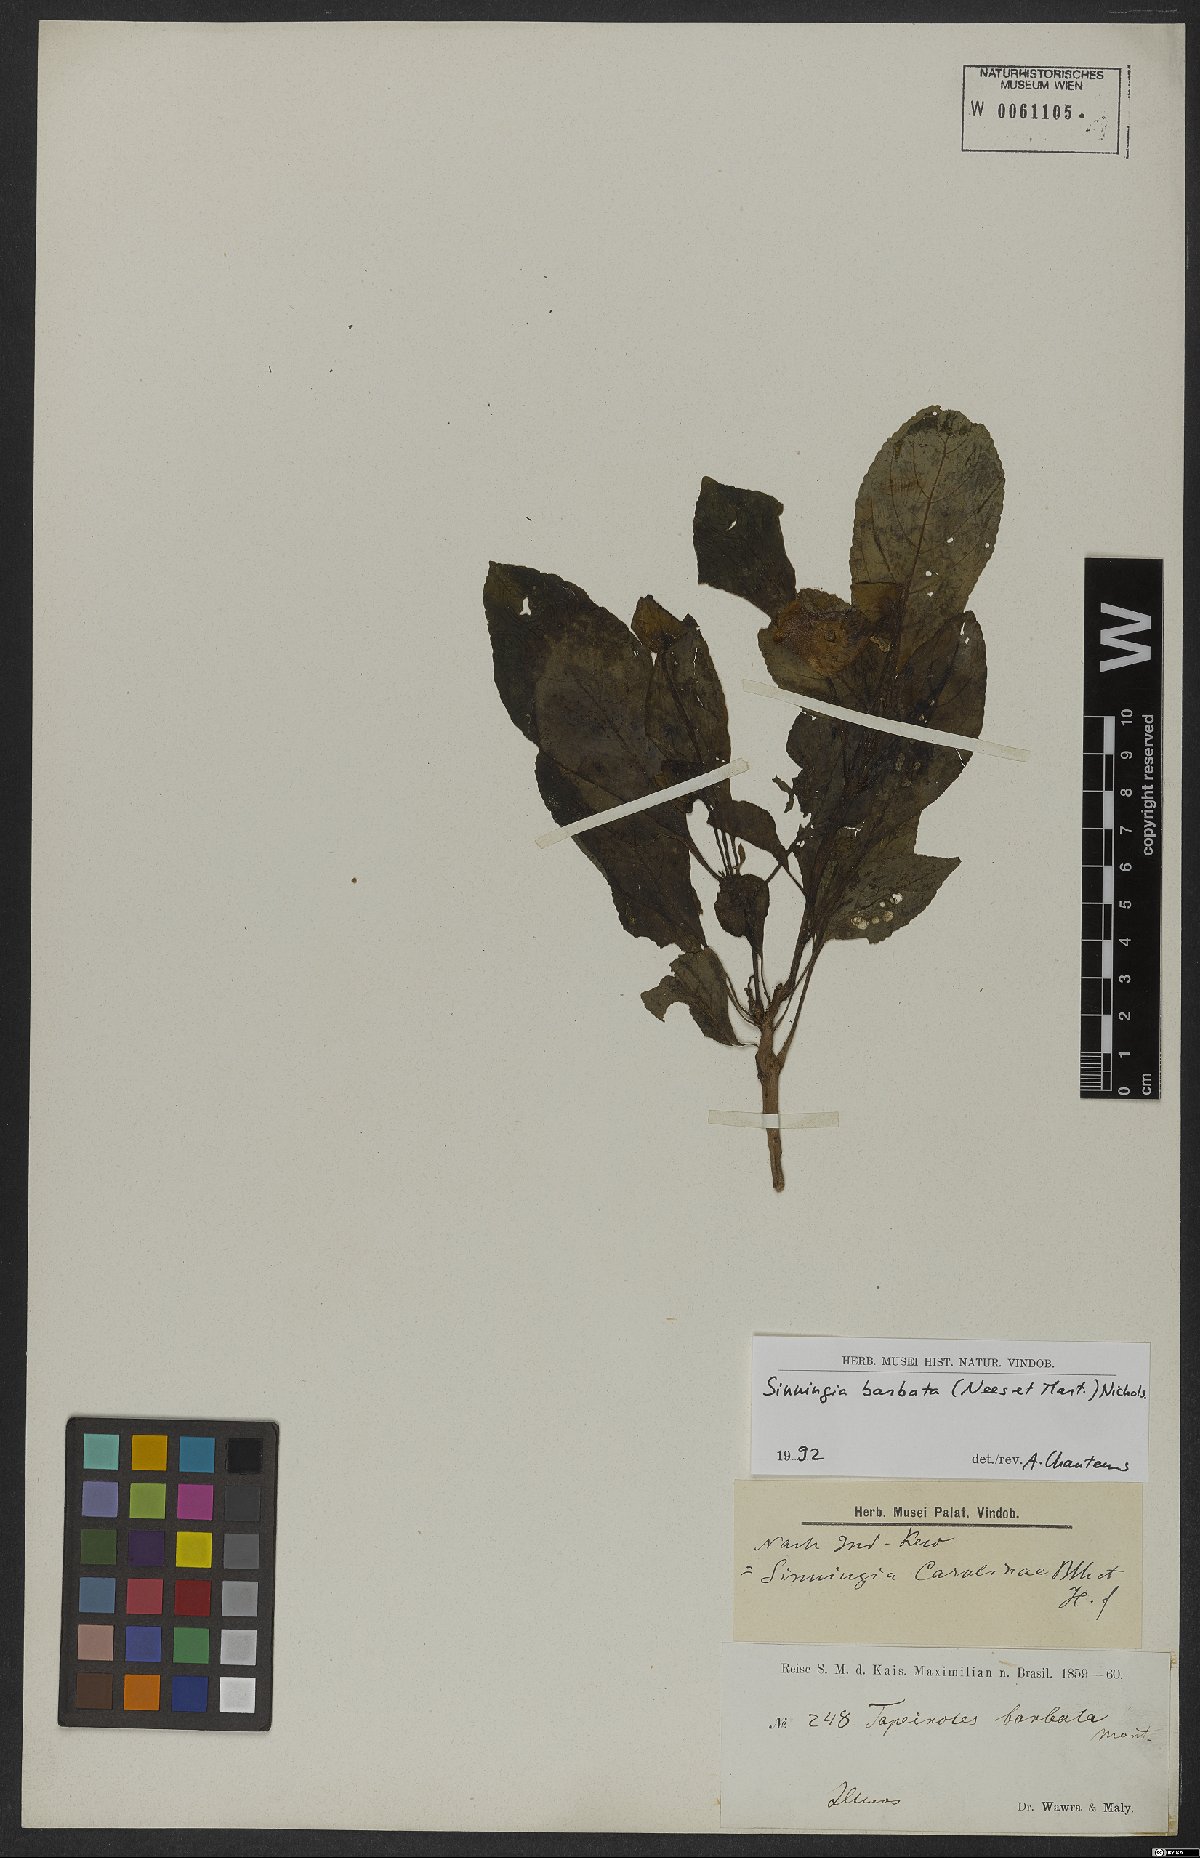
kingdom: Plantae
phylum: Tracheophyta
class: Magnoliopsida
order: Lamiales
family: Gesneriaceae
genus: Sinningia
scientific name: Sinningia barbata
